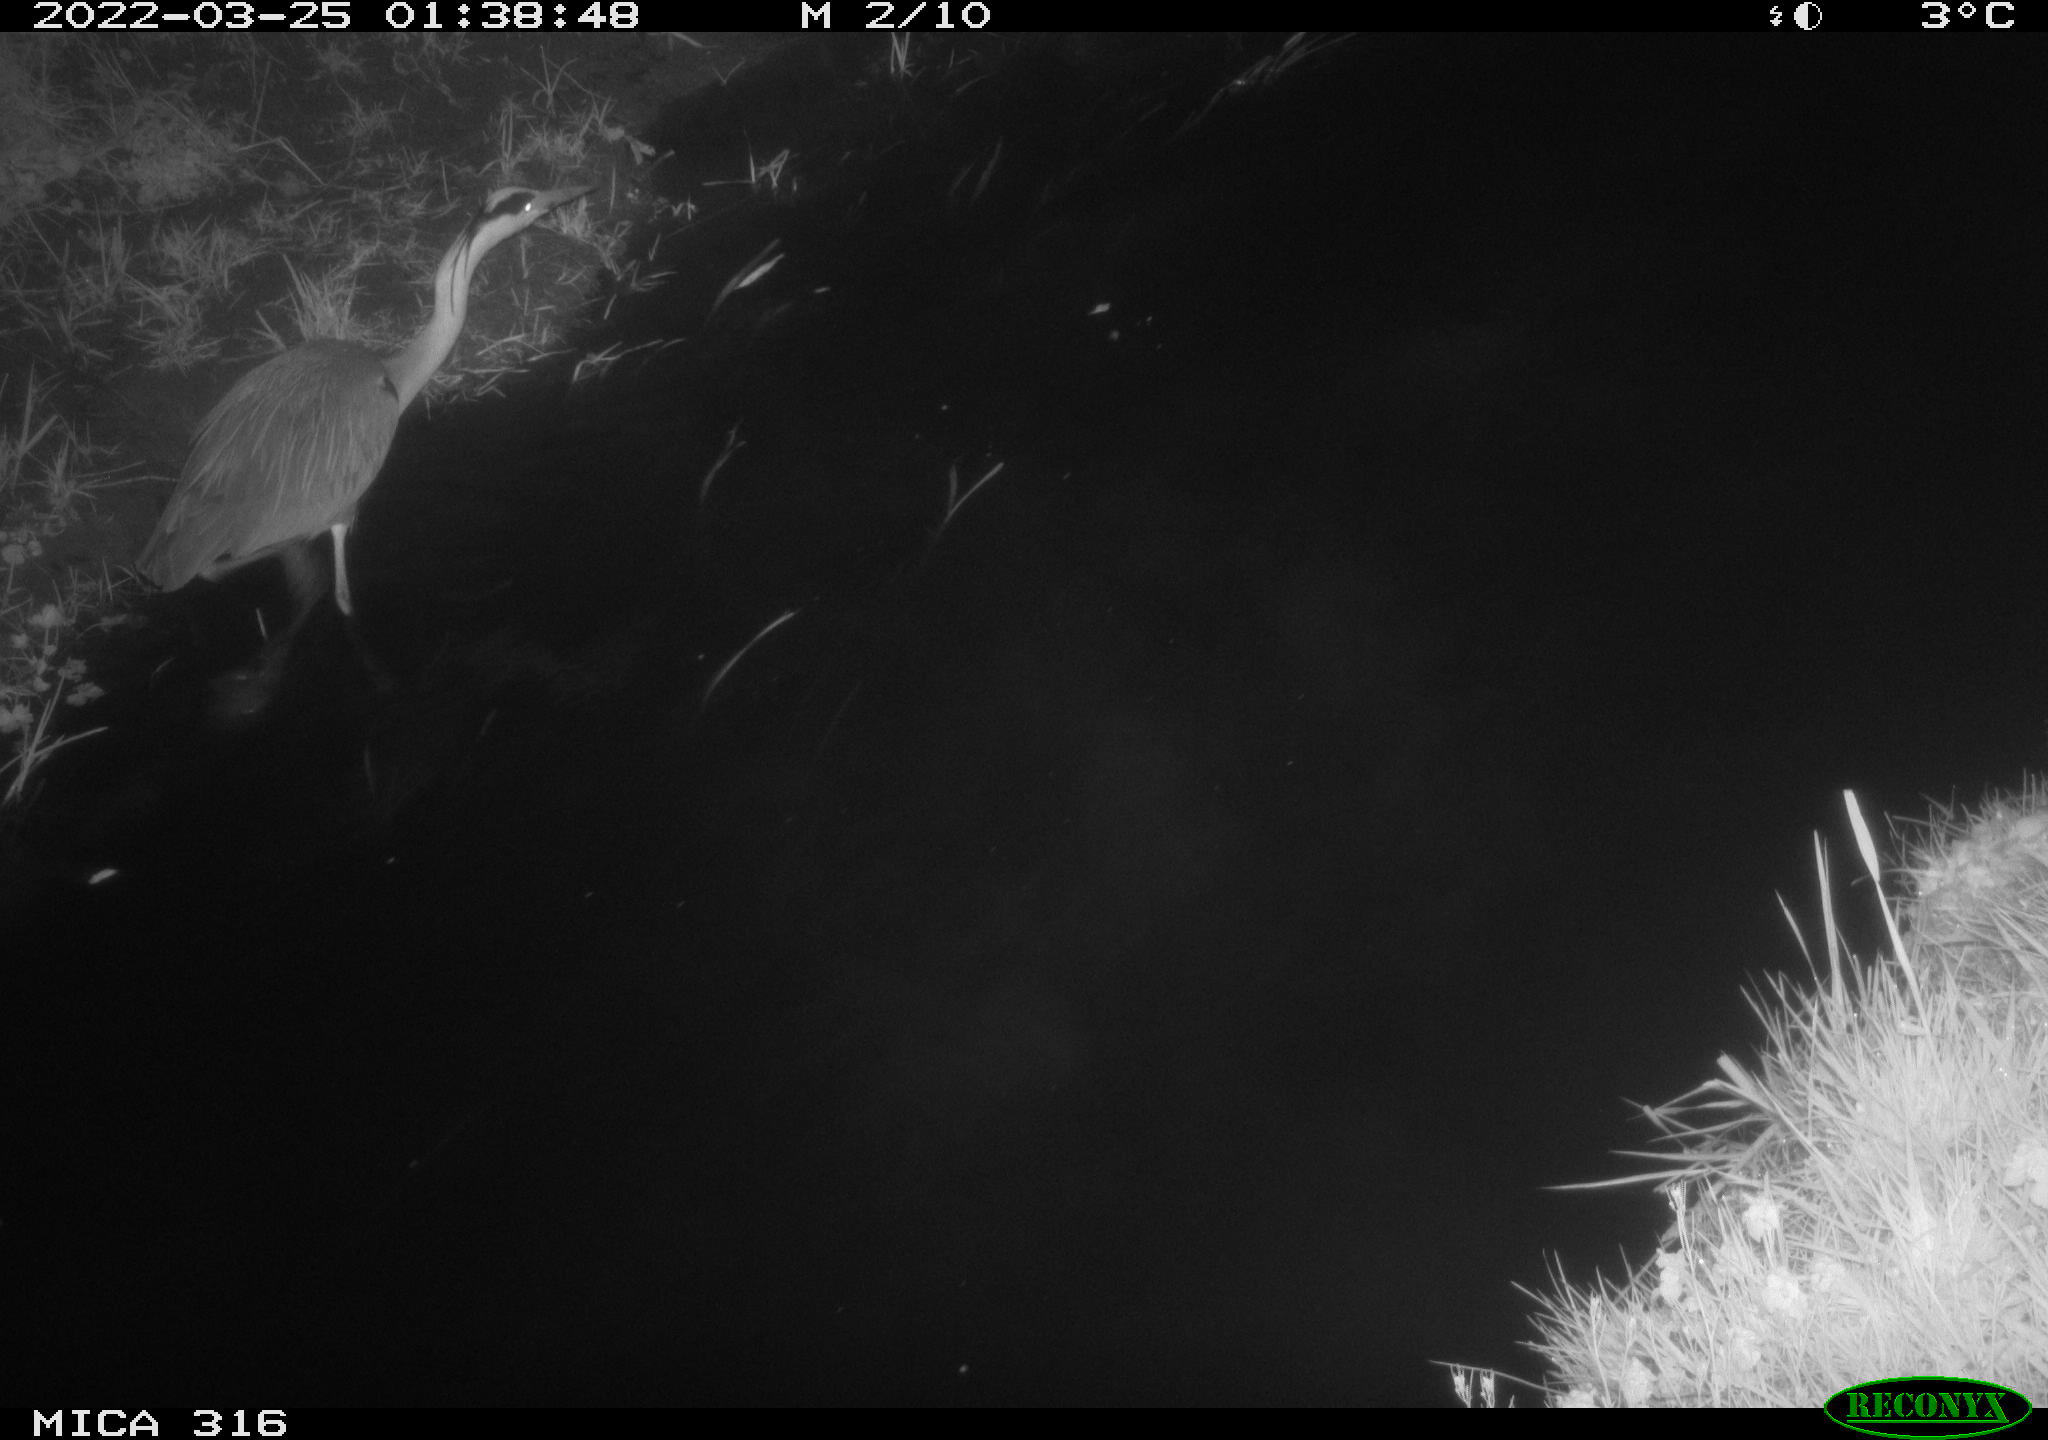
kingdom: Animalia
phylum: Chordata
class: Aves
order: Pelecaniformes
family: Ardeidae
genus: Ardea
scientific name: Ardea
